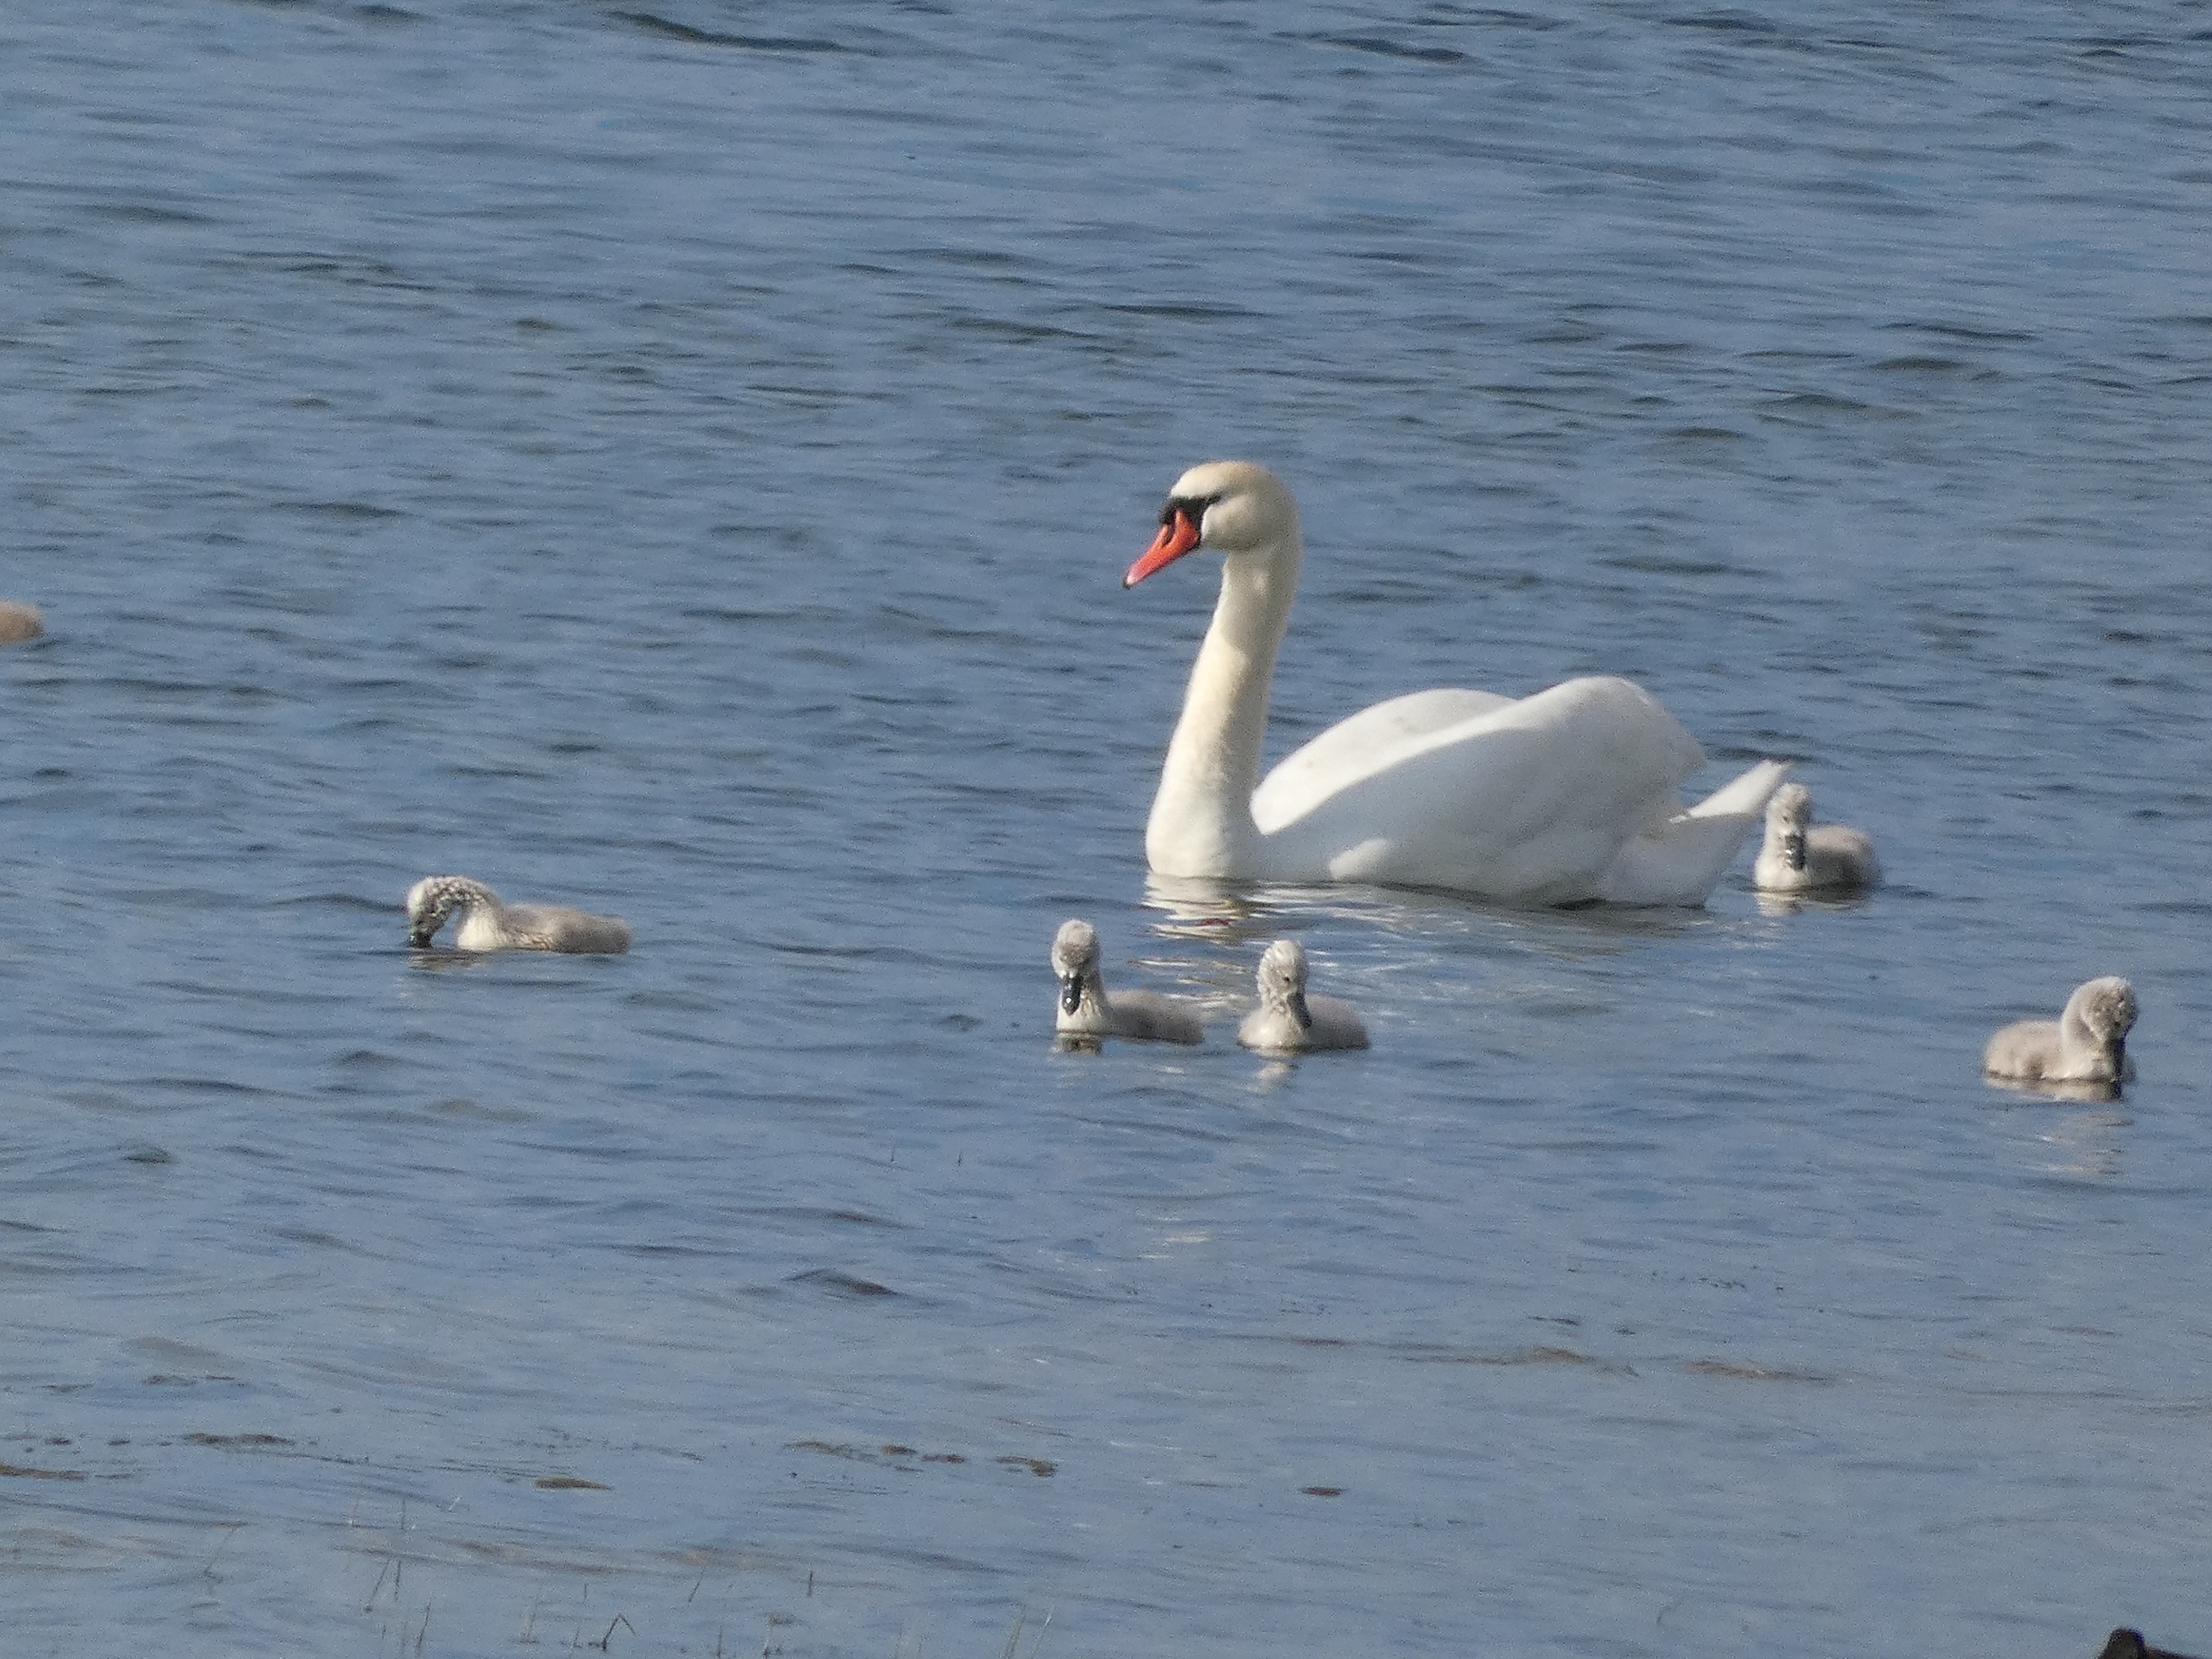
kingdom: Animalia
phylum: Chordata
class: Aves
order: Anseriformes
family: Anatidae
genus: Cygnus
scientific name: Cygnus olor
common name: Knopsvane
